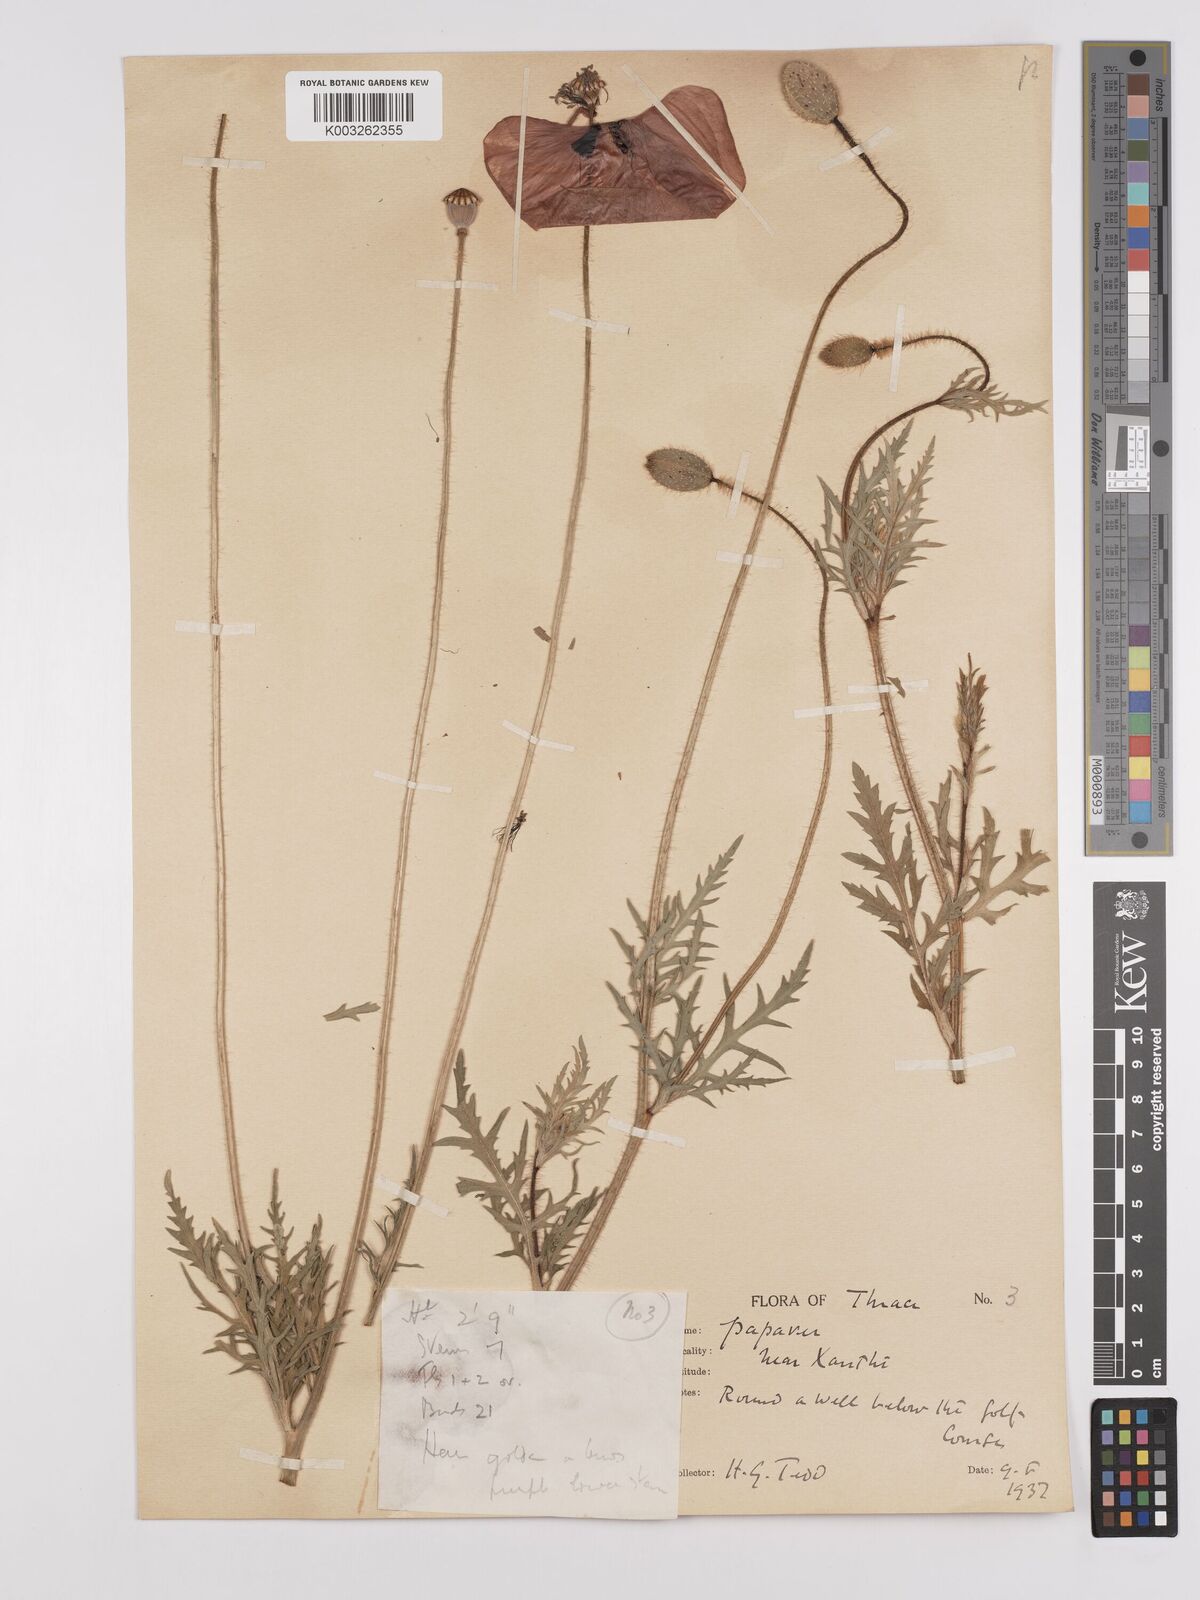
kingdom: Plantae
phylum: Tracheophyta
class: Magnoliopsida
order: Ranunculales
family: Papaveraceae
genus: Papaver
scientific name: Papaver rhoeas
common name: Corn poppy
